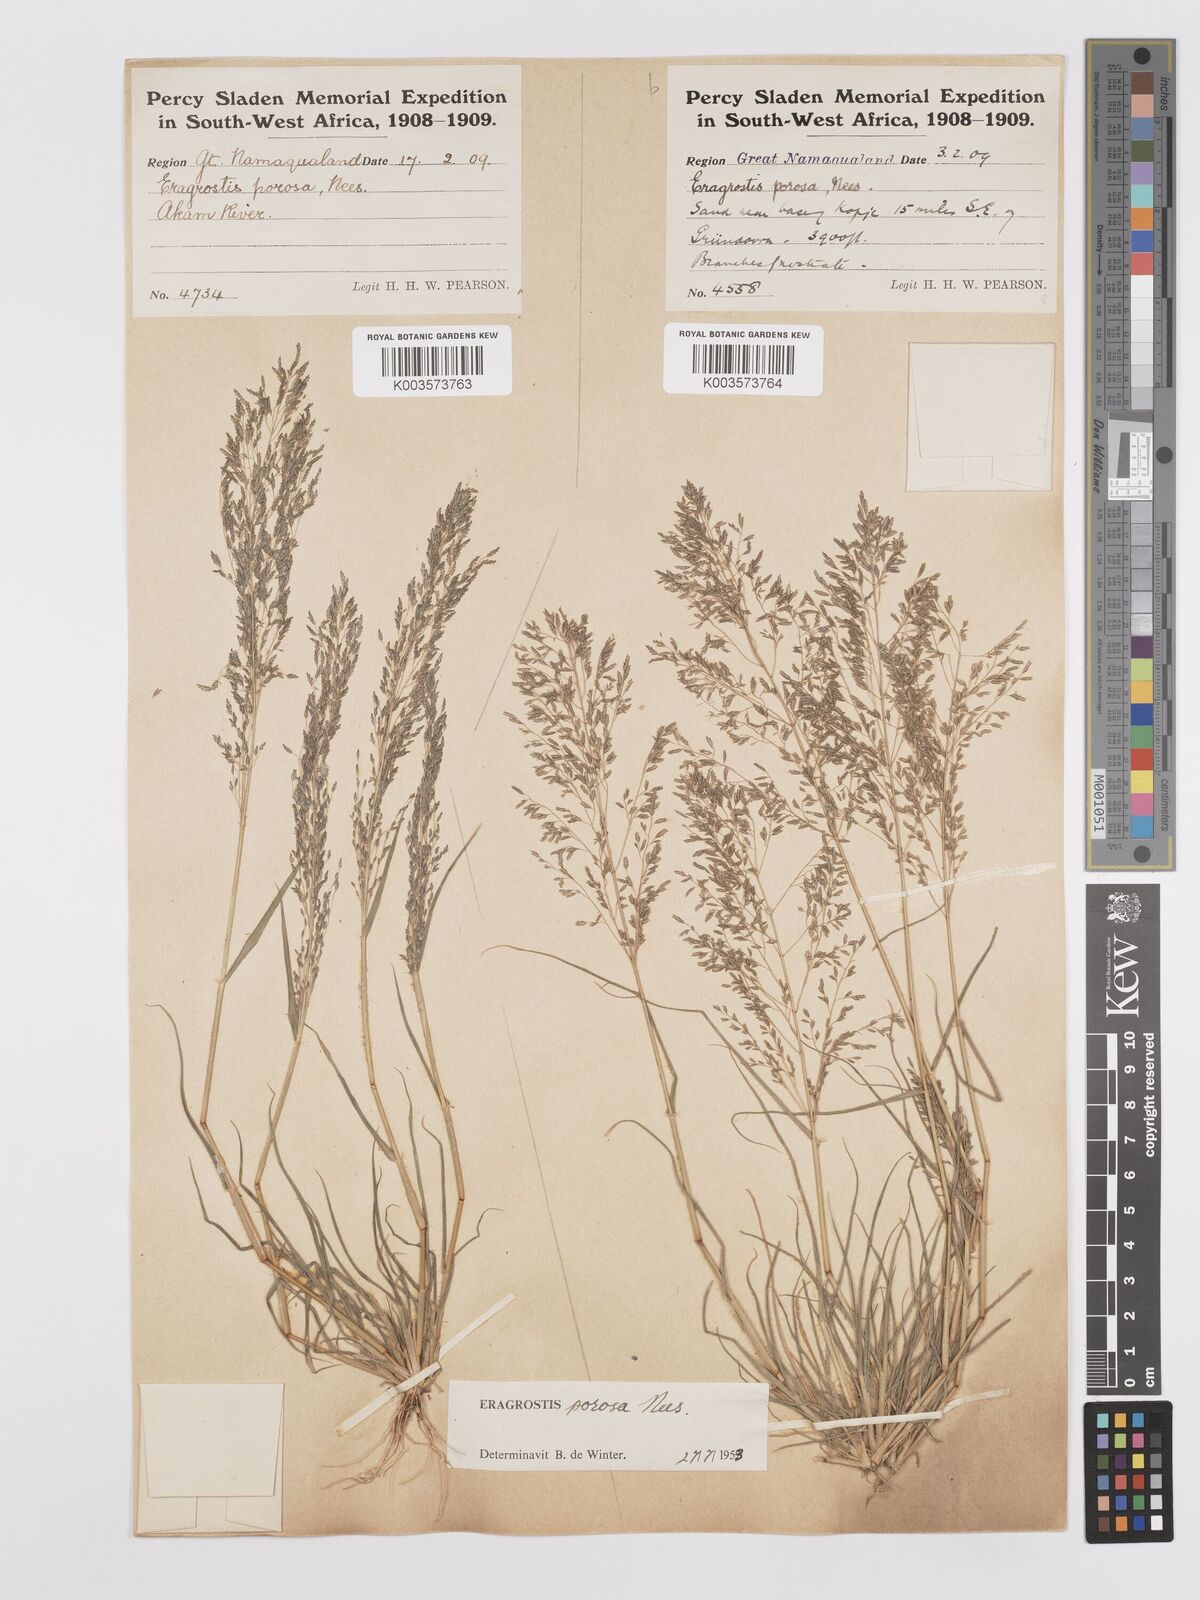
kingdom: Plantae
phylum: Tracheophyta
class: Liliopsida
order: Poales
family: Poaceae
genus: Eragrostis
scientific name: Eragrostis porosa
